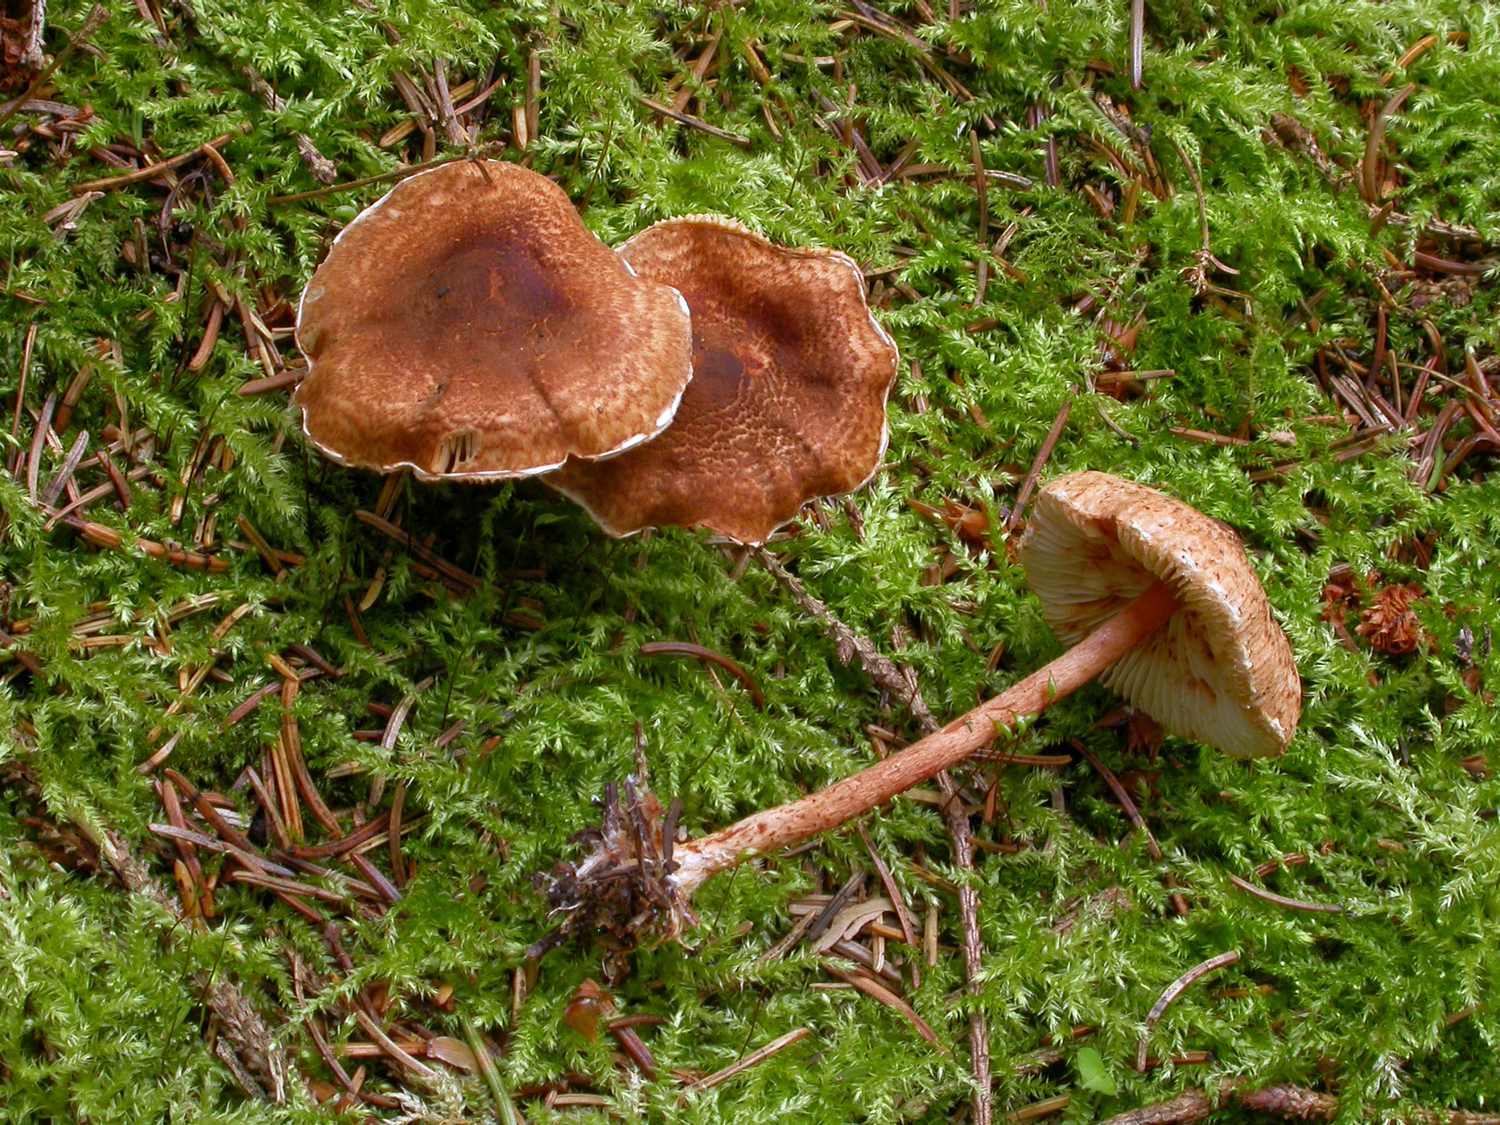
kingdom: Fungi
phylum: Basidiomycota
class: Agaricomycetes
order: Agaricales
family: Agaricaceae
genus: Lepiota
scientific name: Lepiota castanea
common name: kastaniebrun parasolhat
